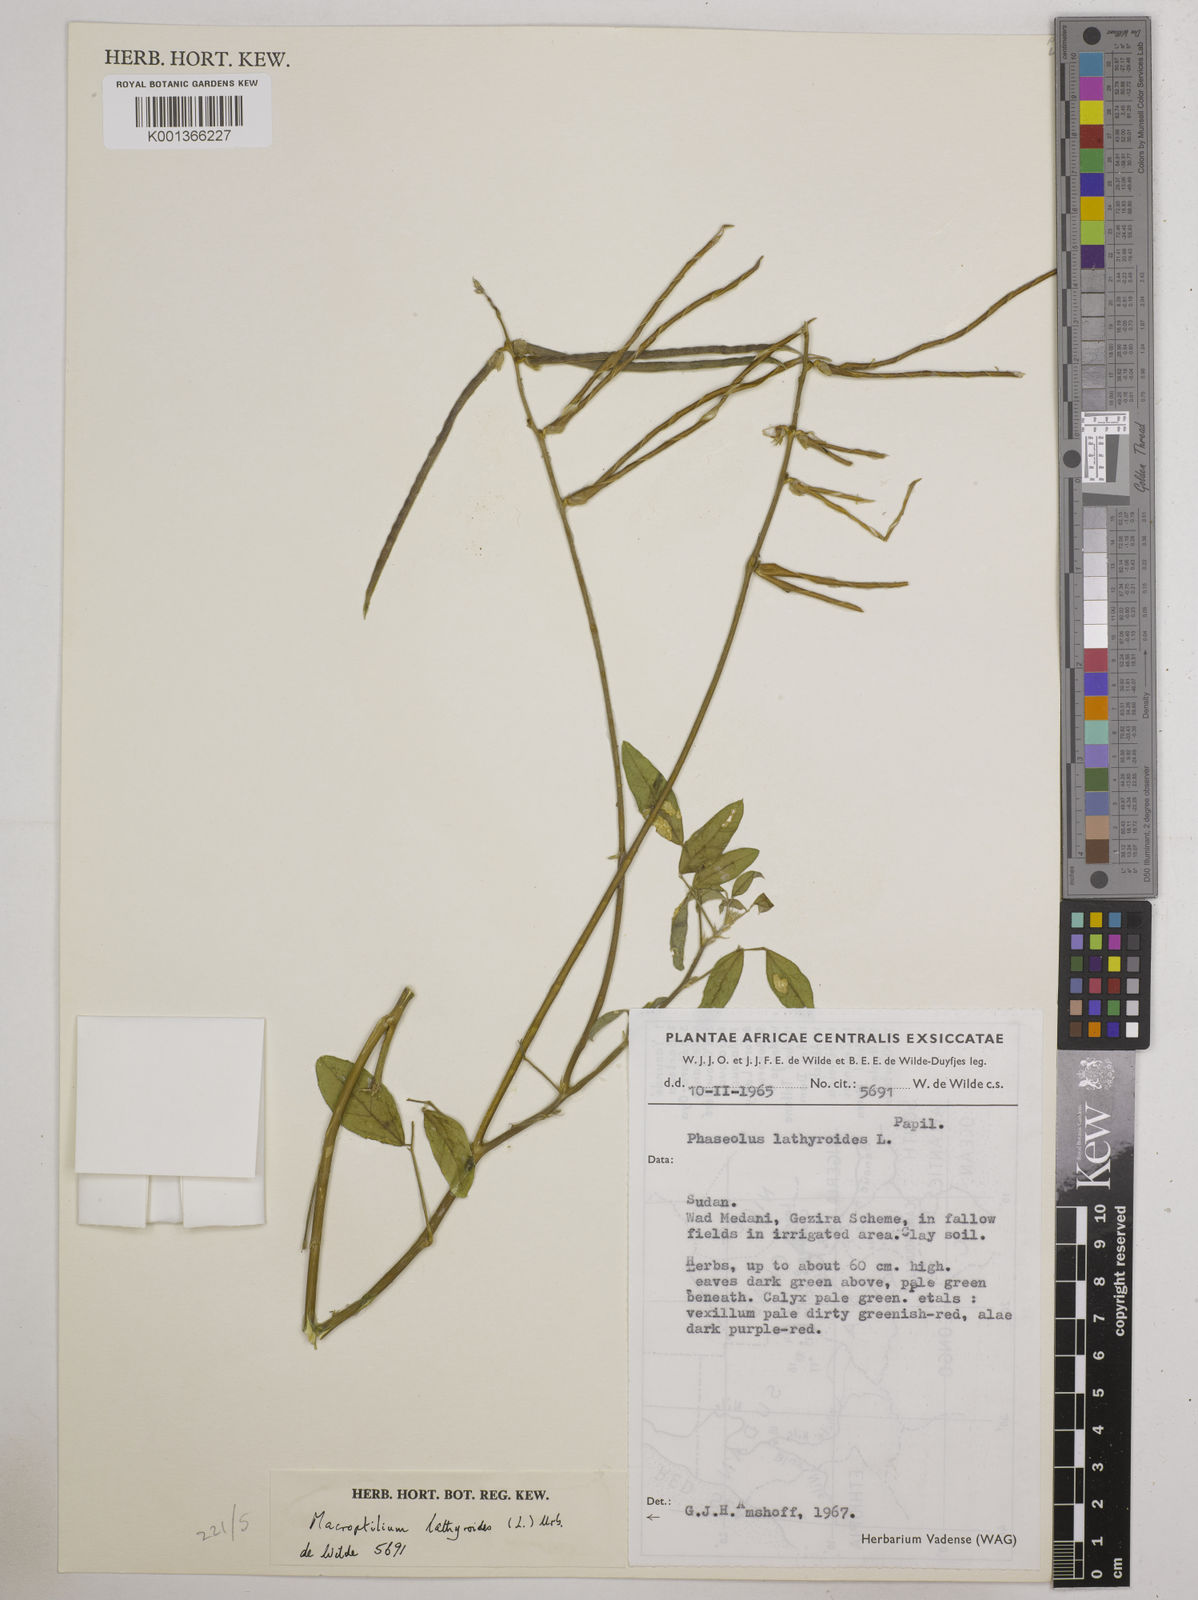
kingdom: Plantae
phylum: Tracheophyta
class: Magnoliopsida
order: Fabales
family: Fabaceae
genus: Macroptilium
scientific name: Macroptilium lathyroides
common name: Wild bushbean
